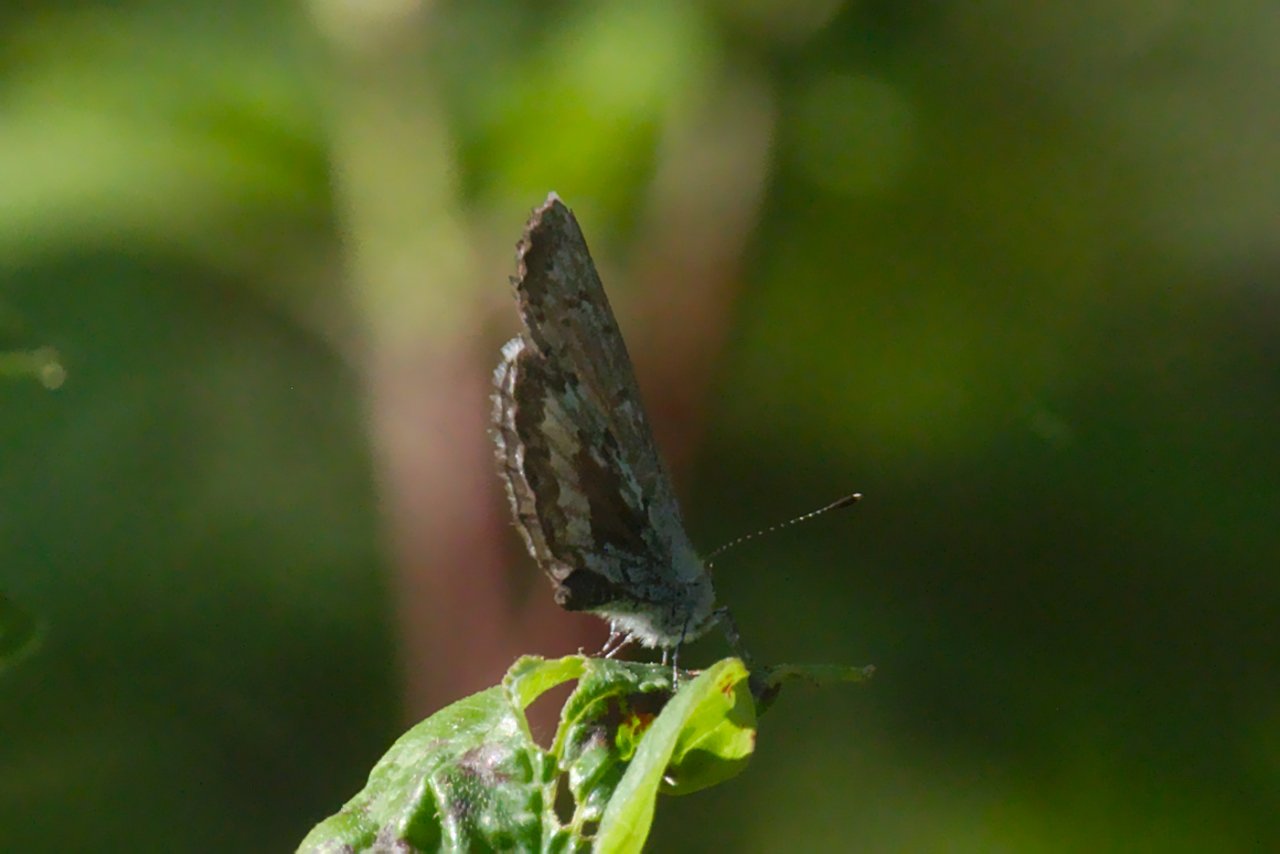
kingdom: Animalia
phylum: Arthropoda
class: Insecta
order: Lepidoptera
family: Lycaenidae
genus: Celastrina
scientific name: Celastrina lucia
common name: Northern Spring Azure
